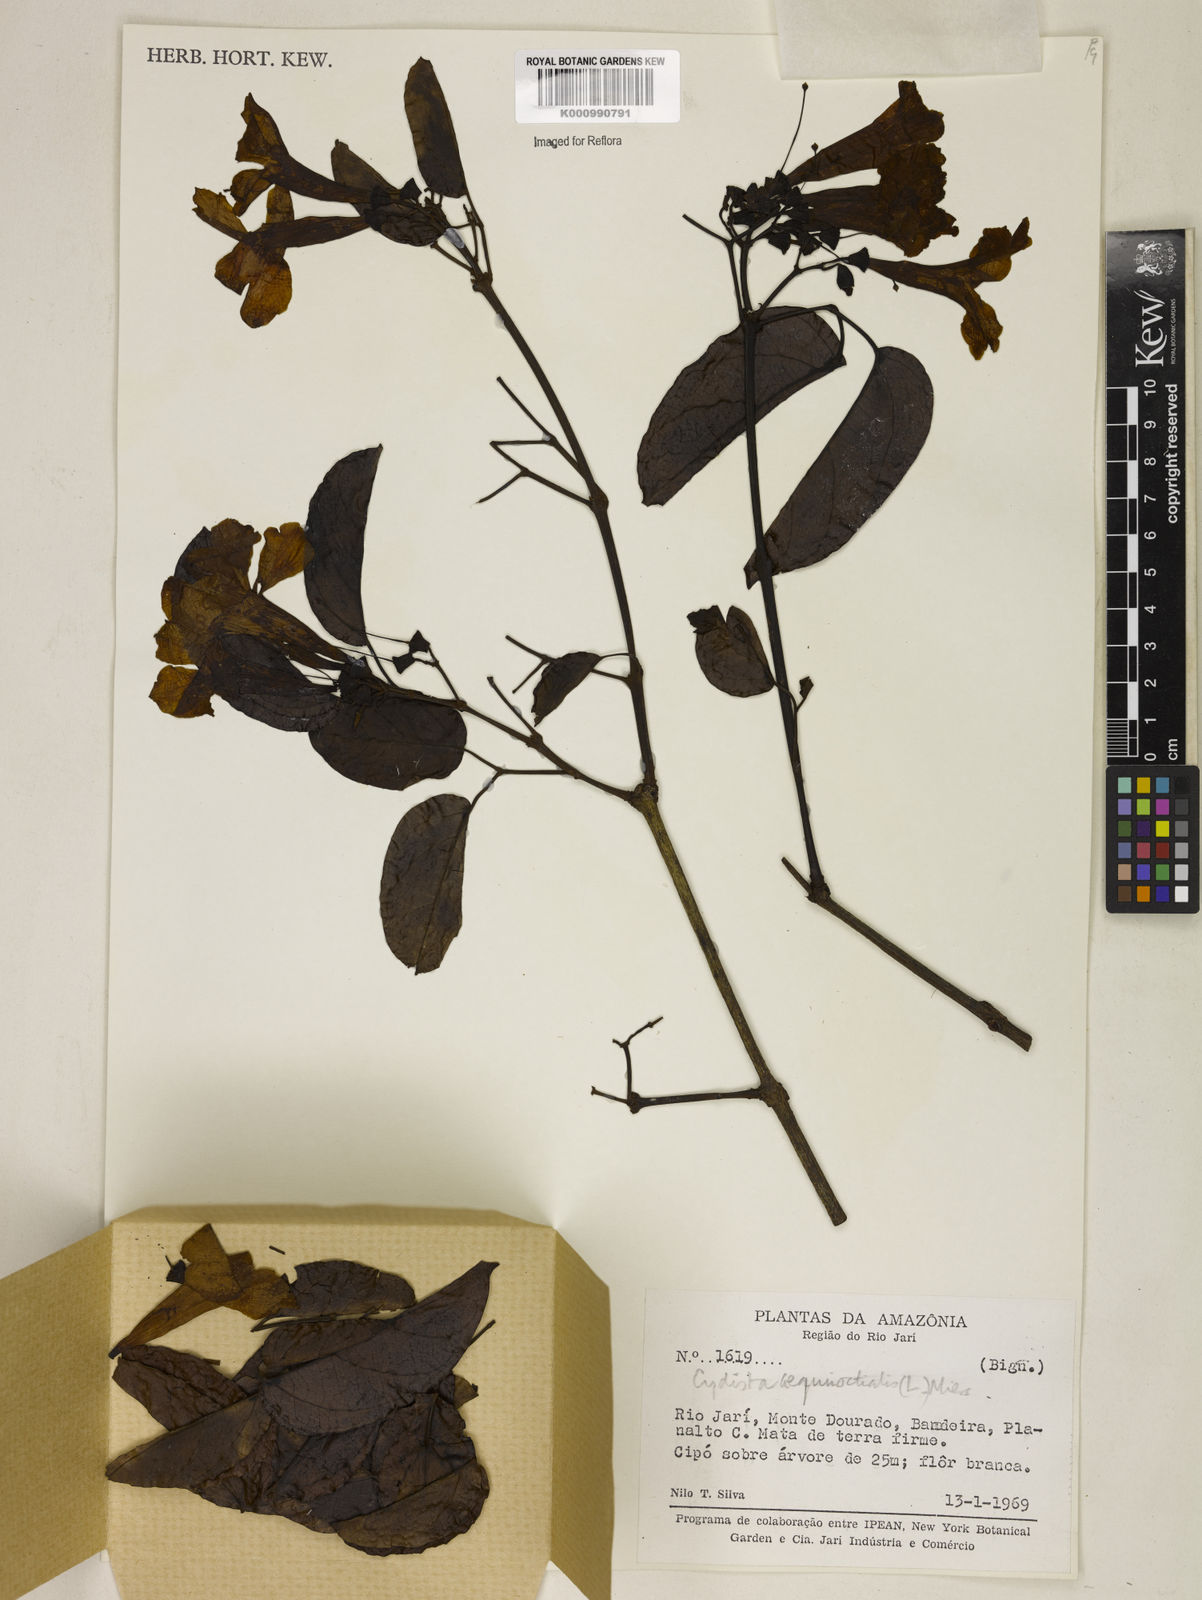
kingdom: Plantae
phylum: Tracheophyta
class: Magnoliopsida
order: Lamiales
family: Bignoniaceae
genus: Bignonia
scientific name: Bignonia aequinoctialis
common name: Garlicvine
